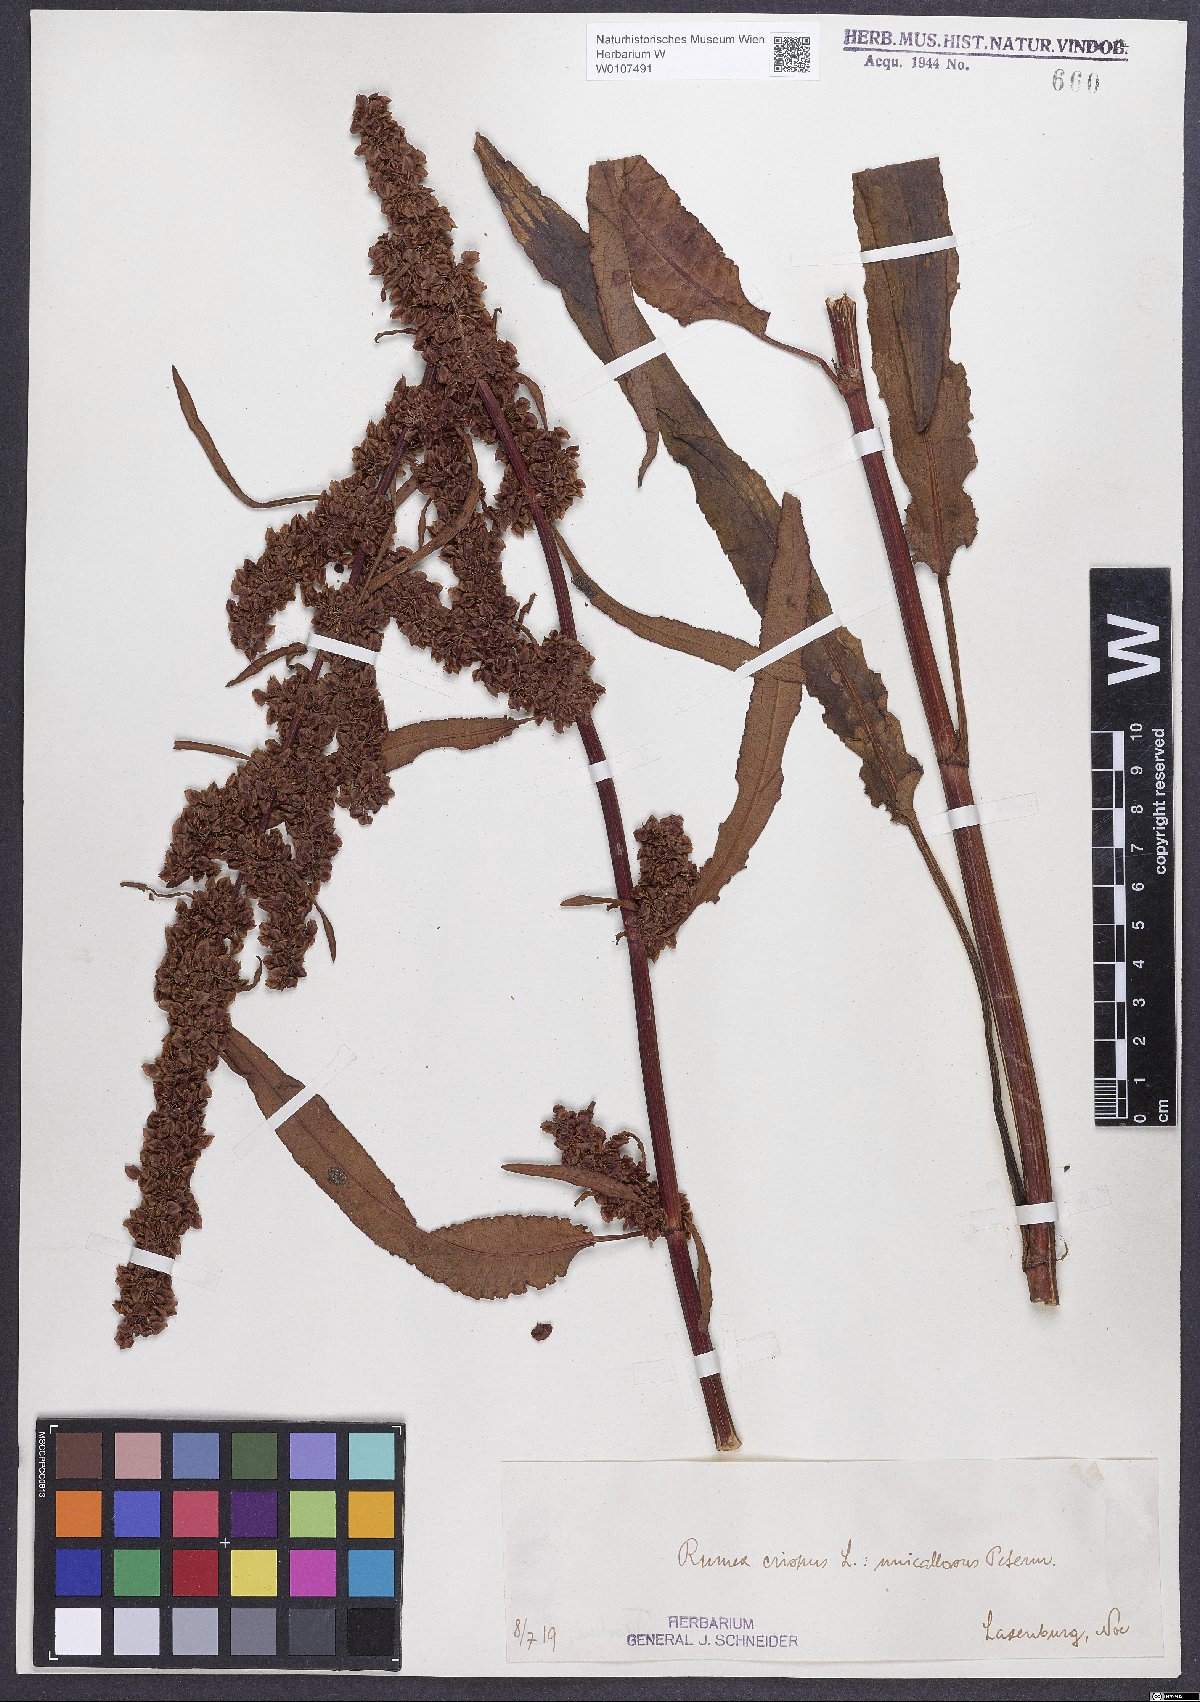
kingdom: Plantae
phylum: Tracheophyta
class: Magnoliopsida
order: Caryophyllales
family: Polygonaceae
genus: Rumex
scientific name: Rumex crispus
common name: Curled dock
